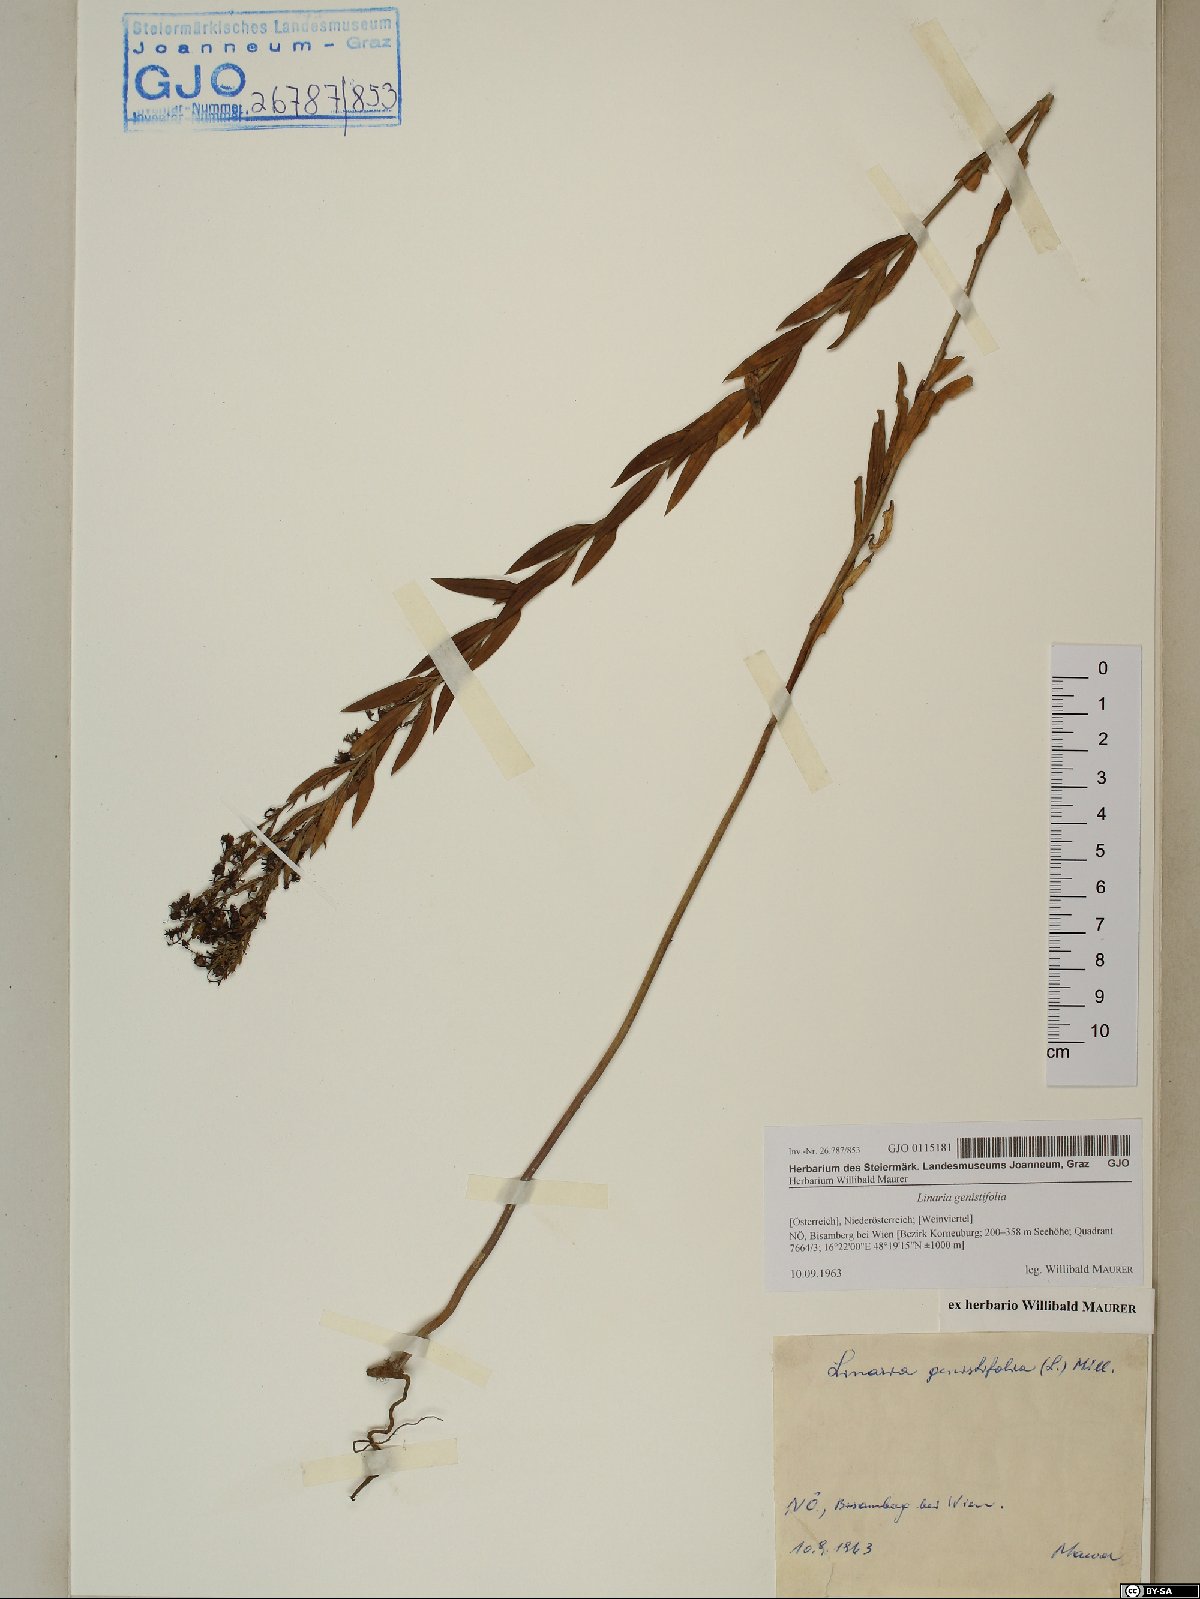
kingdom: Plantae
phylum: Tracheophyta
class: Magnoliopsida
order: Lamiales
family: Plantaginaceae
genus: Linaria
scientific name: Linaria genistifolia
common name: Broomleaf toadflax
